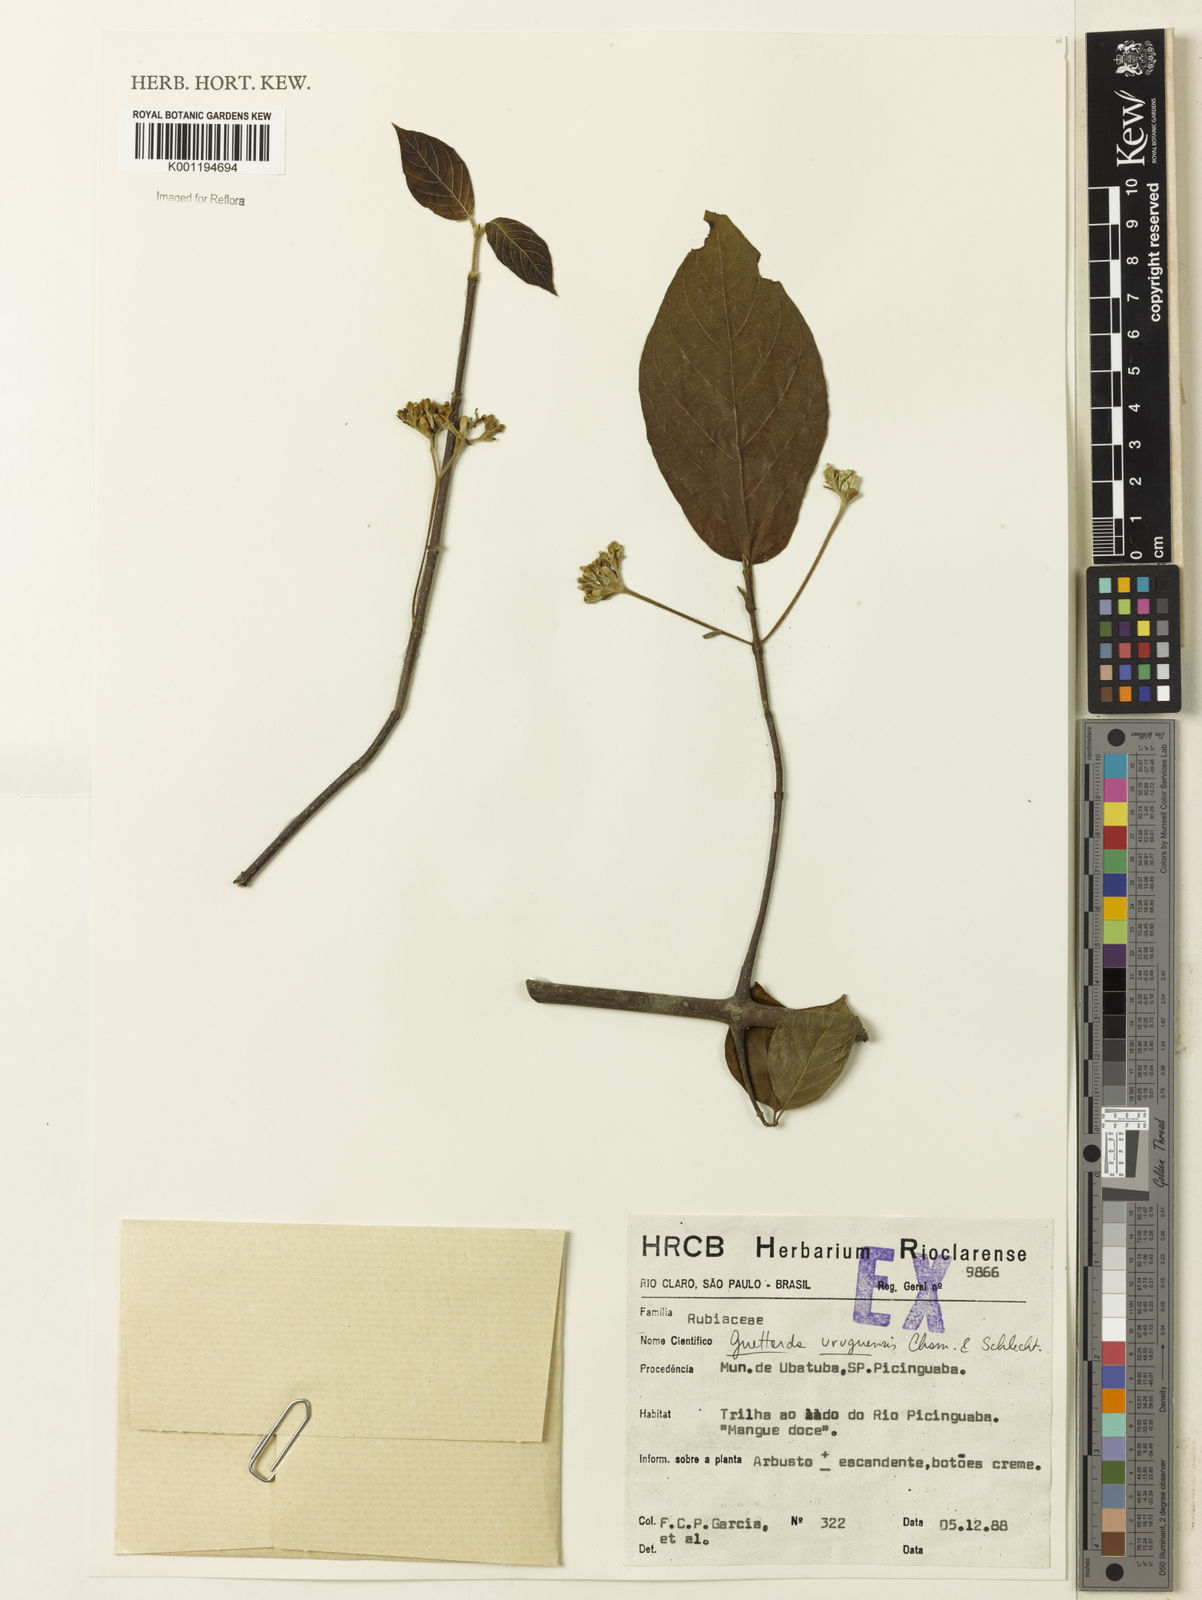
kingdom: Plantae
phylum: Tracheophyta
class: Magnoliopsida
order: Gentianales
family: Rubiaceae
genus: Guettarda
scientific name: Guettarda uruguensis
